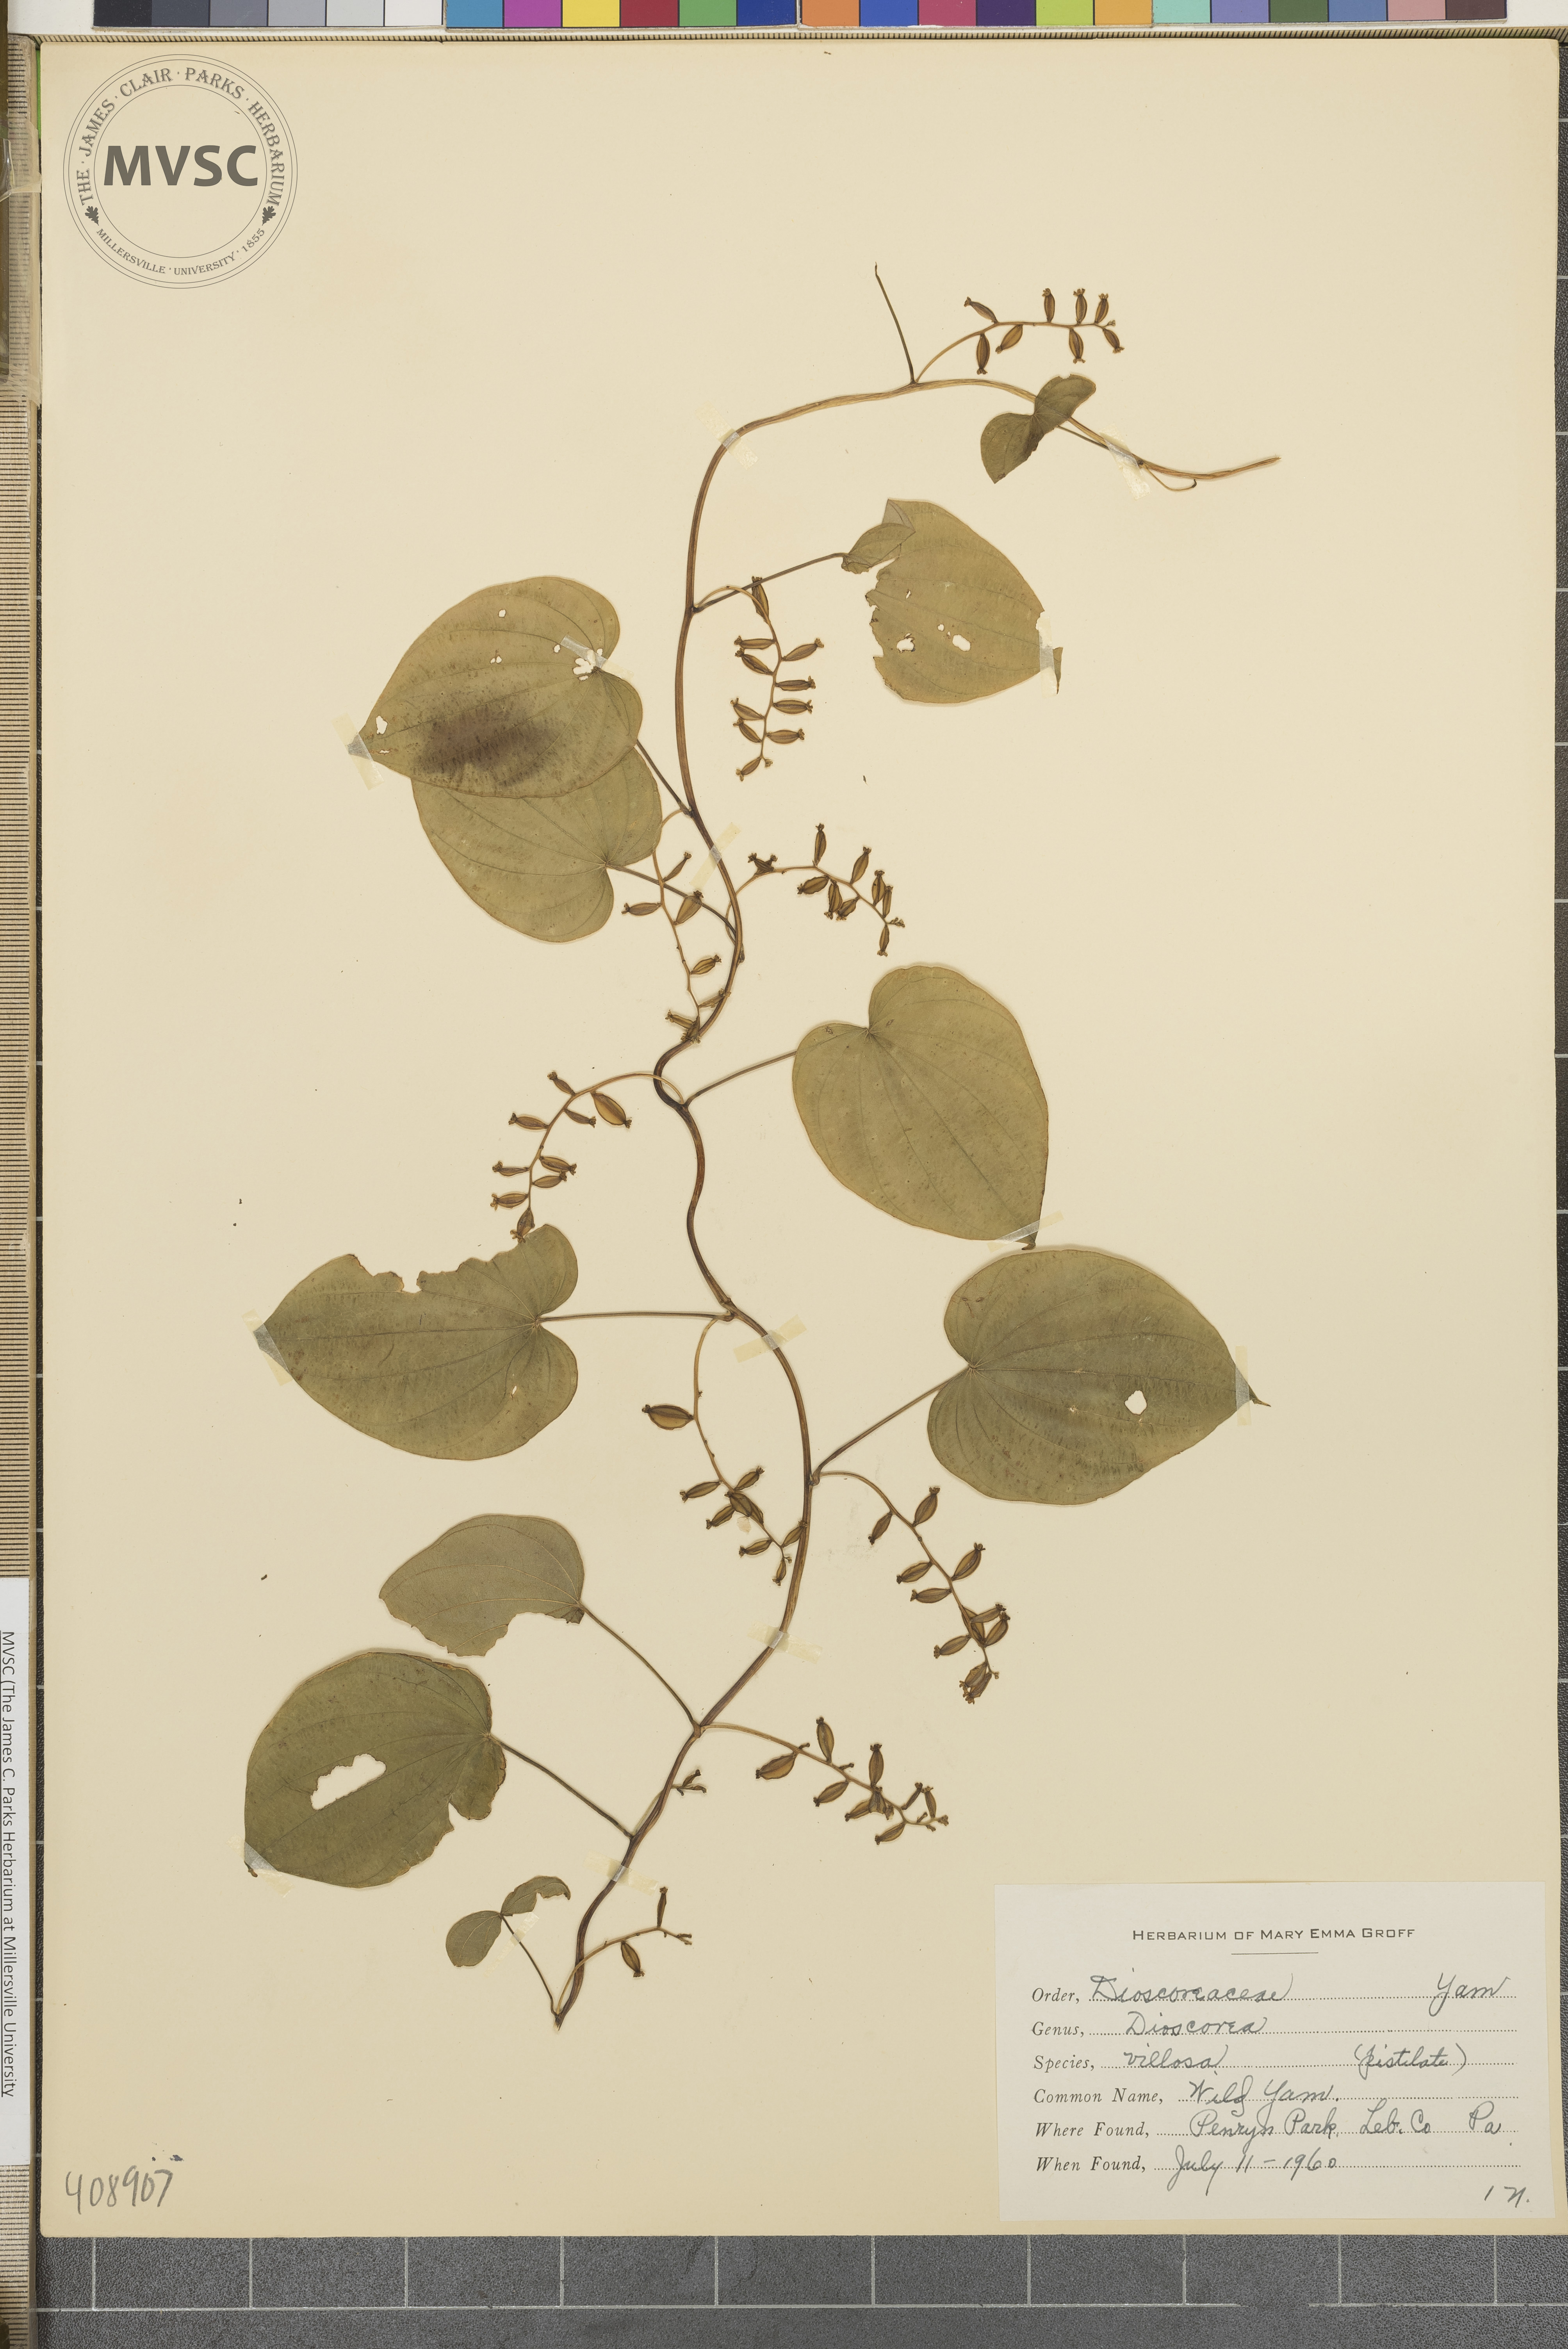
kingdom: Plantae
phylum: Tracheophyta
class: Liliopsida
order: Dioscoreales
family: Dioscoreaceae
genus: Dioscorea
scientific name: Dioscorea villosa
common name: Wild Yam
